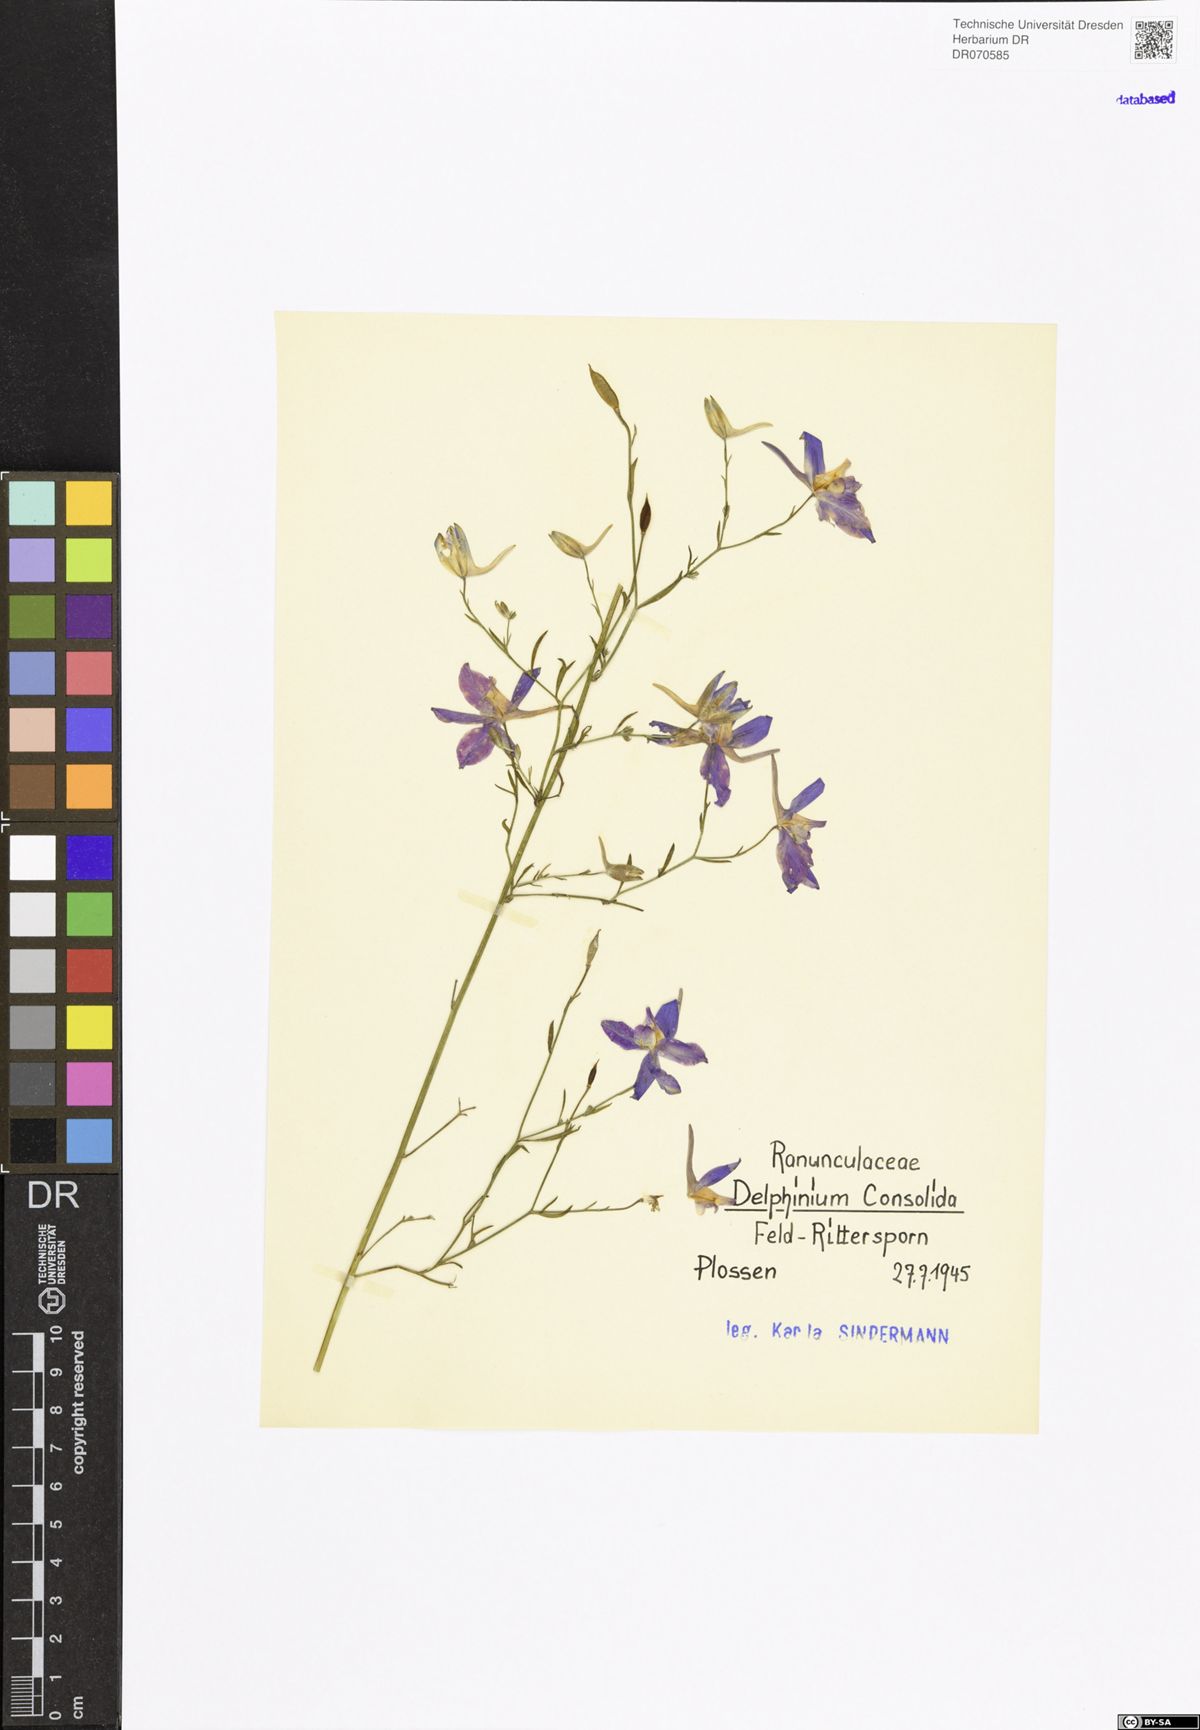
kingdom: Plantae
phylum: Tracheophyta
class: Magnoliopsida
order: Ranunculales
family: Ranunculaceae
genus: Delphinium
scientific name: Delphinium consolida
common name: Branching larkspur
